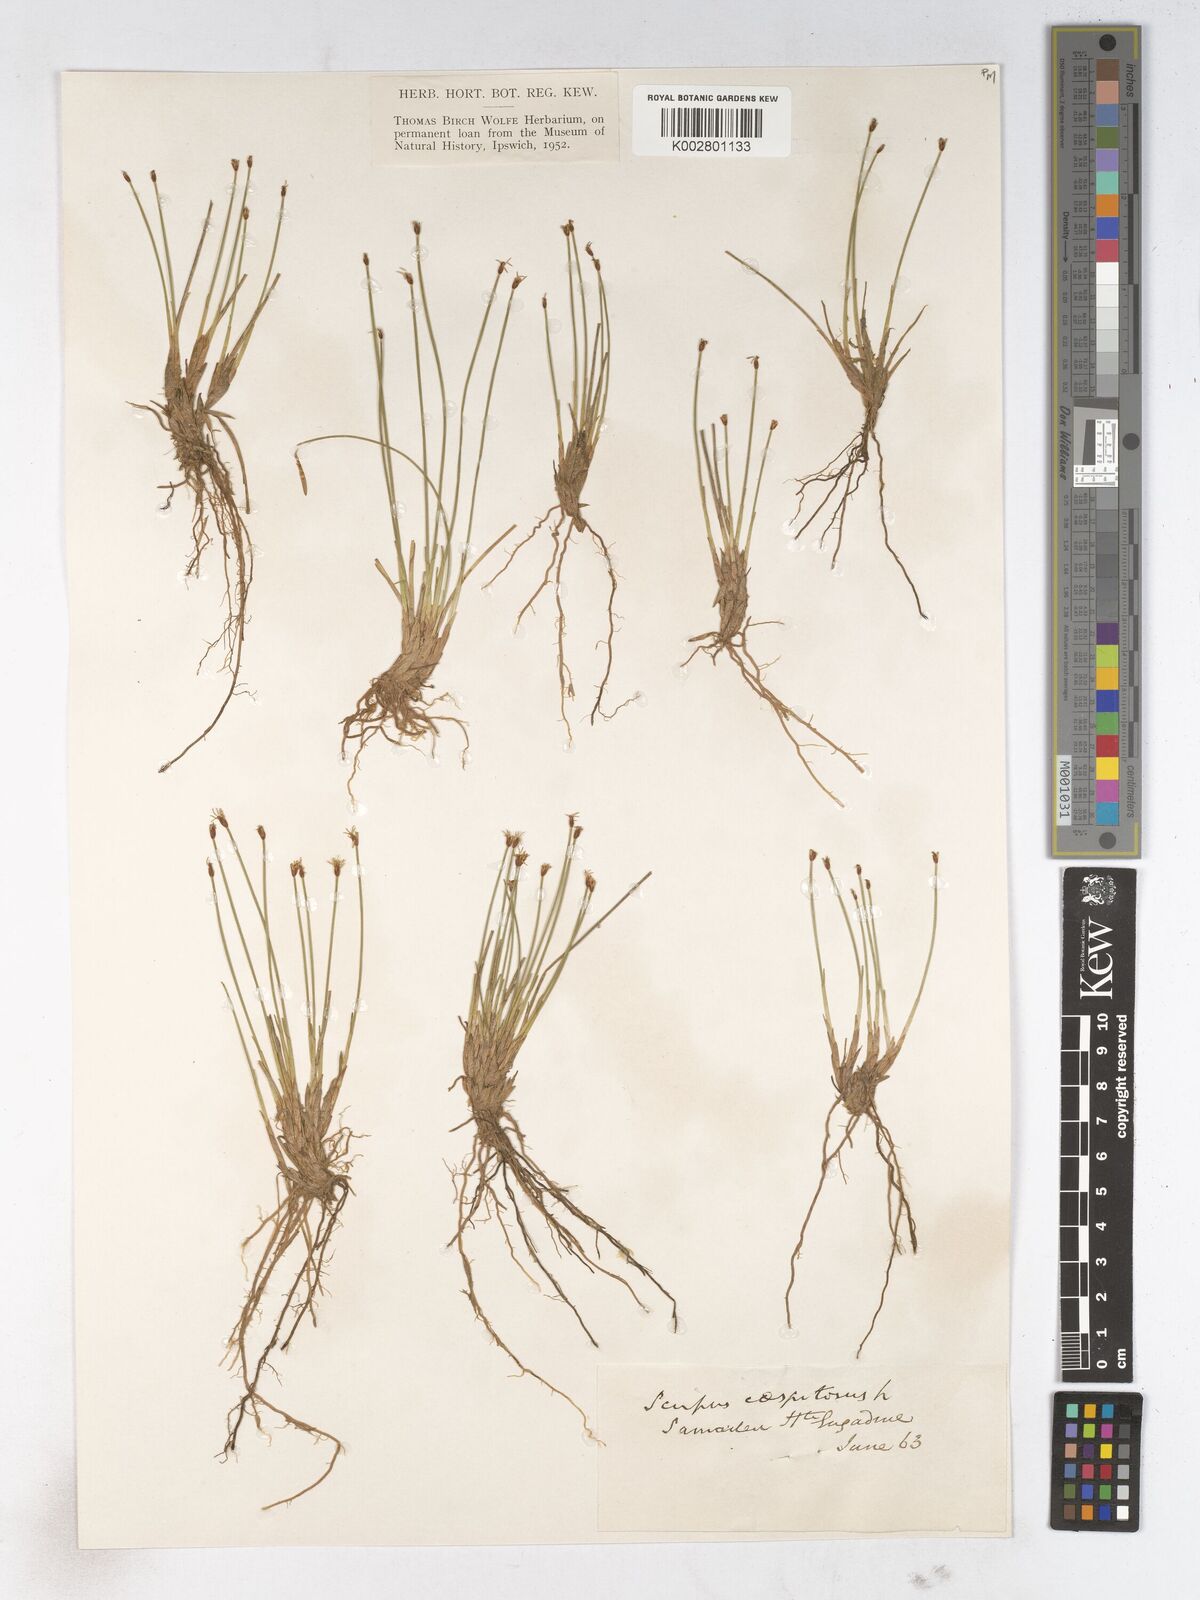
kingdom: Plantae
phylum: Tracheophyta
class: Liliopsida
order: Poales
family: Cyperaceae
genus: Trichophorum
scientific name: Trichophorum cespitosum
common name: Cespitose bulrush
